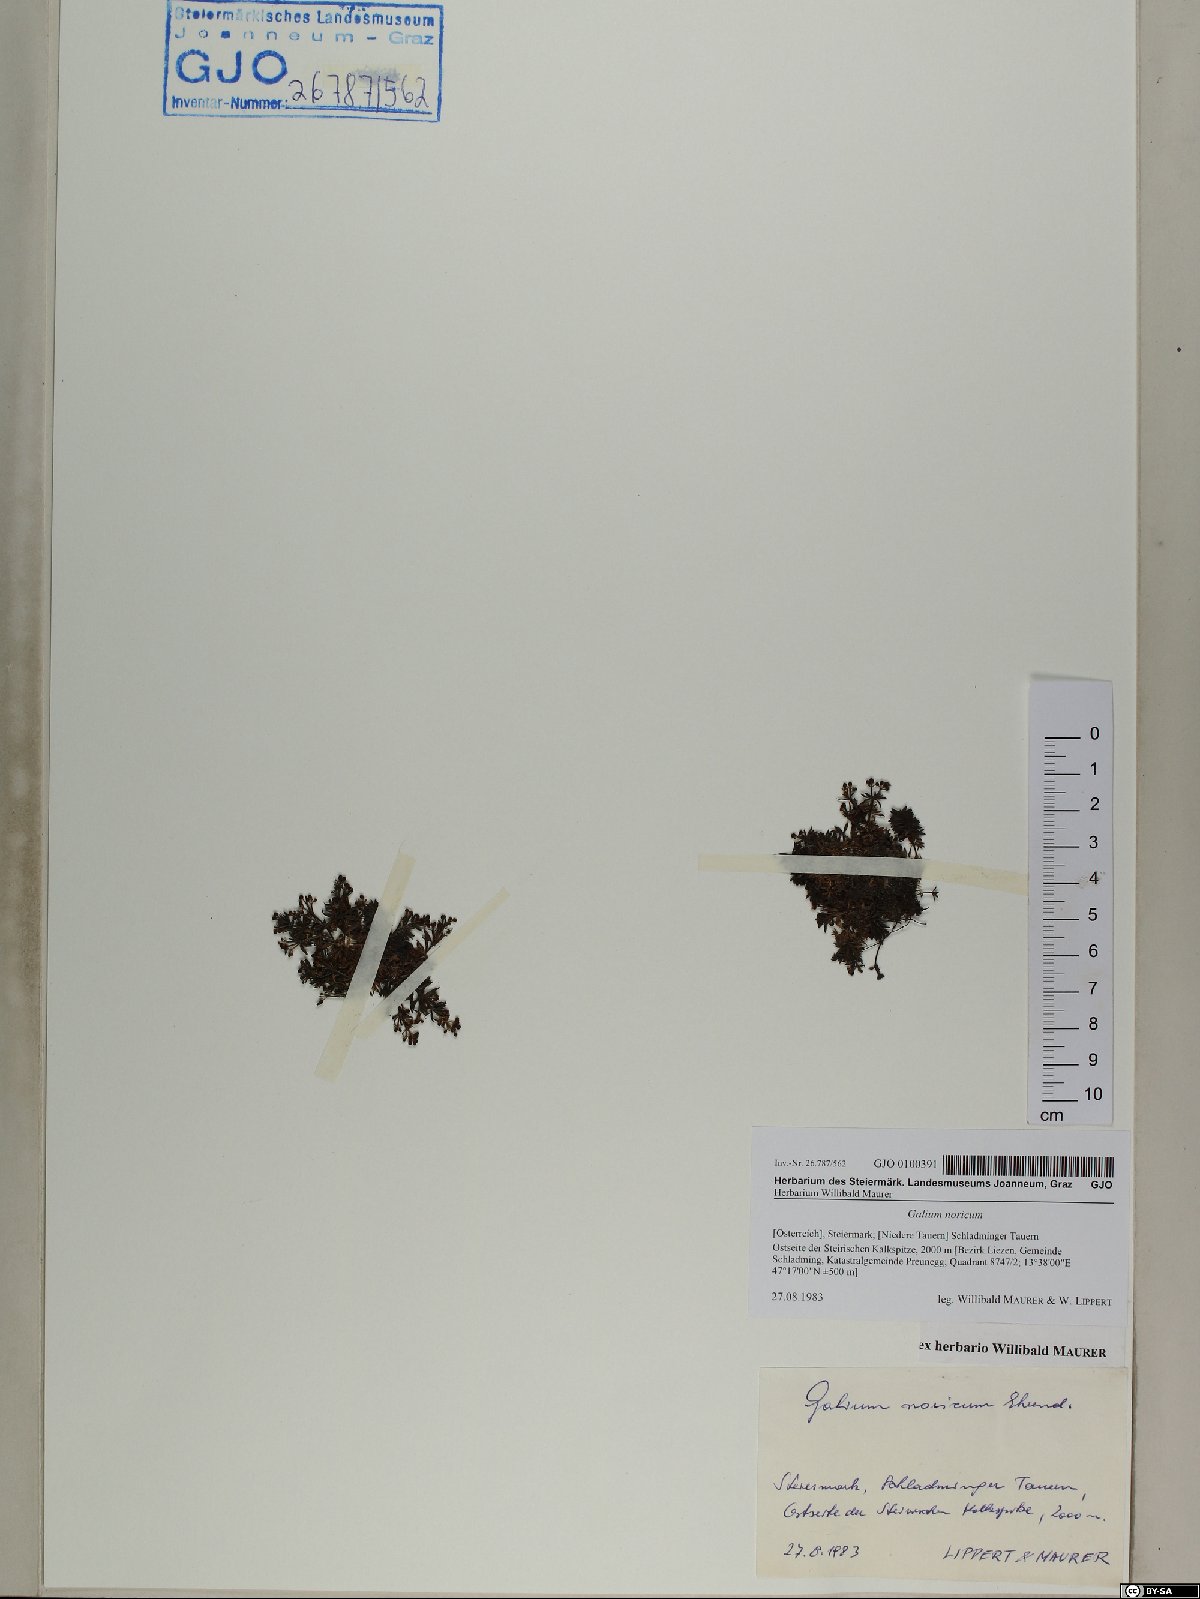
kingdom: Plantae
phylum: Tracheophyta
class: Magnoliopsida
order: Gentianales
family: Rubiaceae
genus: Galium
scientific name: Galium noricum
